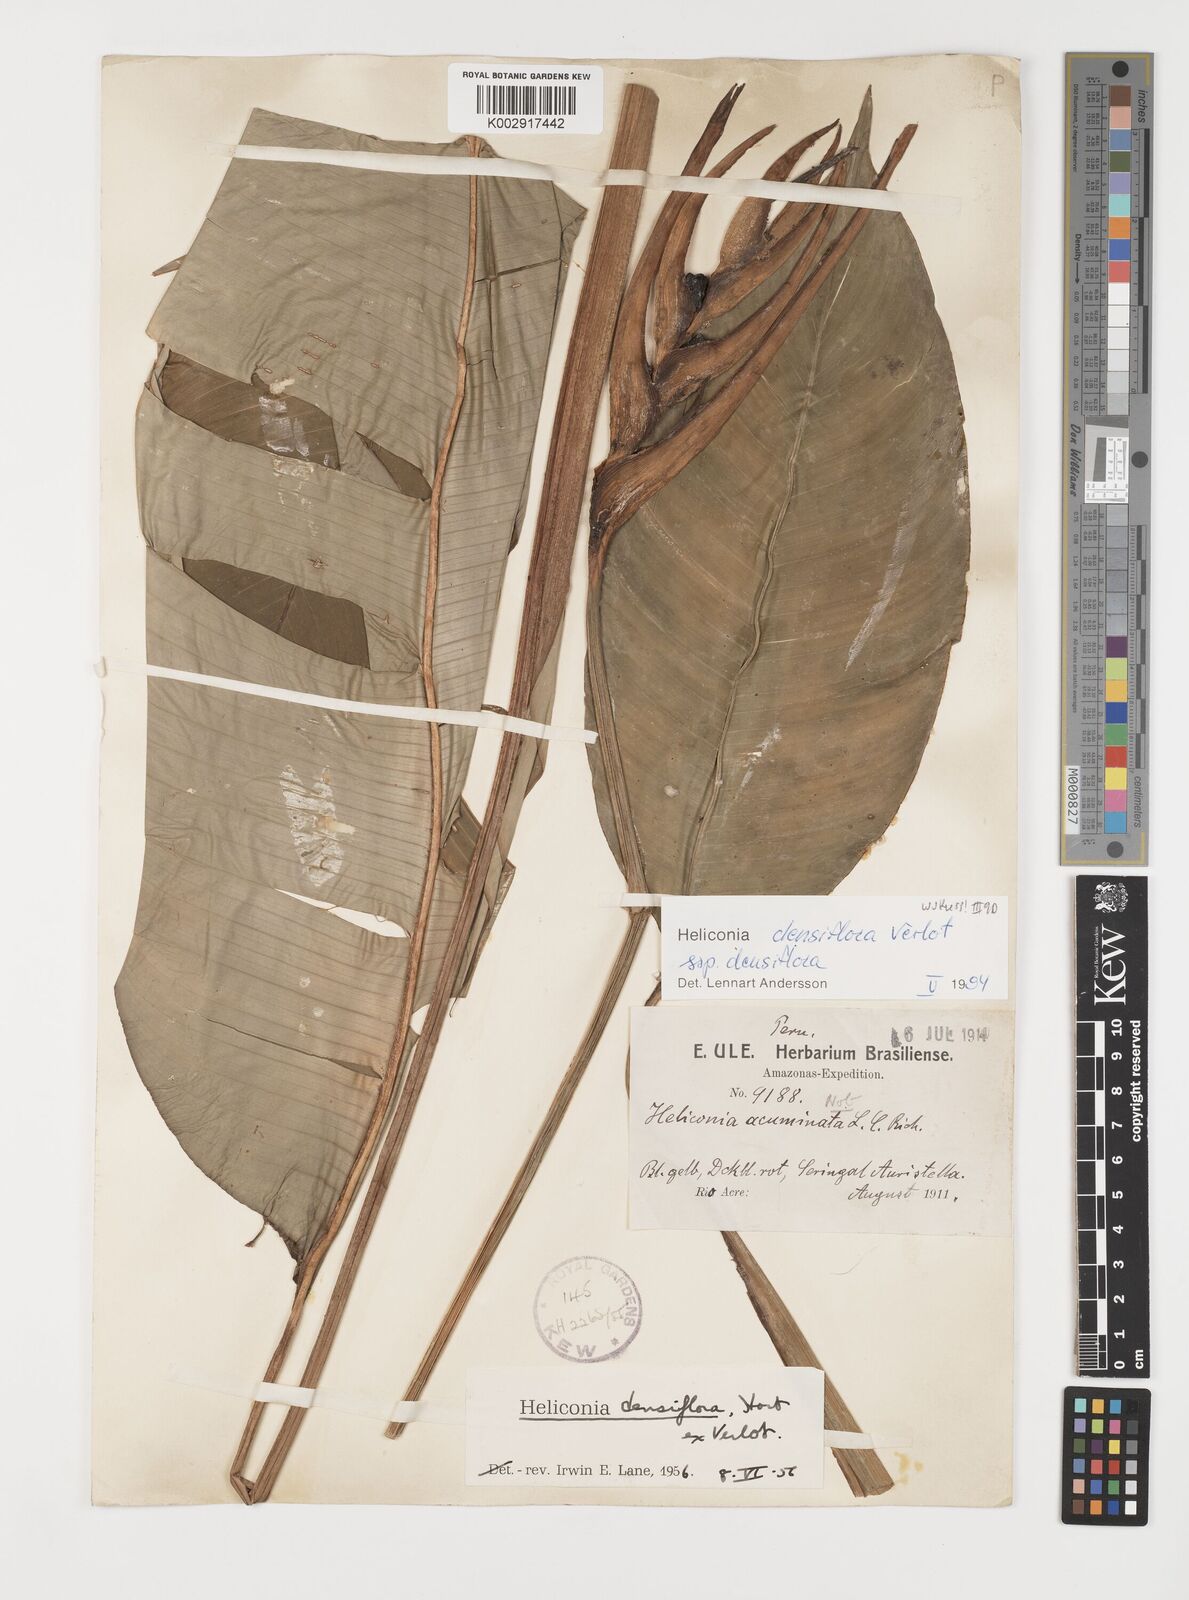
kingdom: Plantae
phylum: Tracheophyta
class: Liliopsida
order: Zingiberales
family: Heliconiaceae
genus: Heliconia
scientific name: Heliconia densiflora
